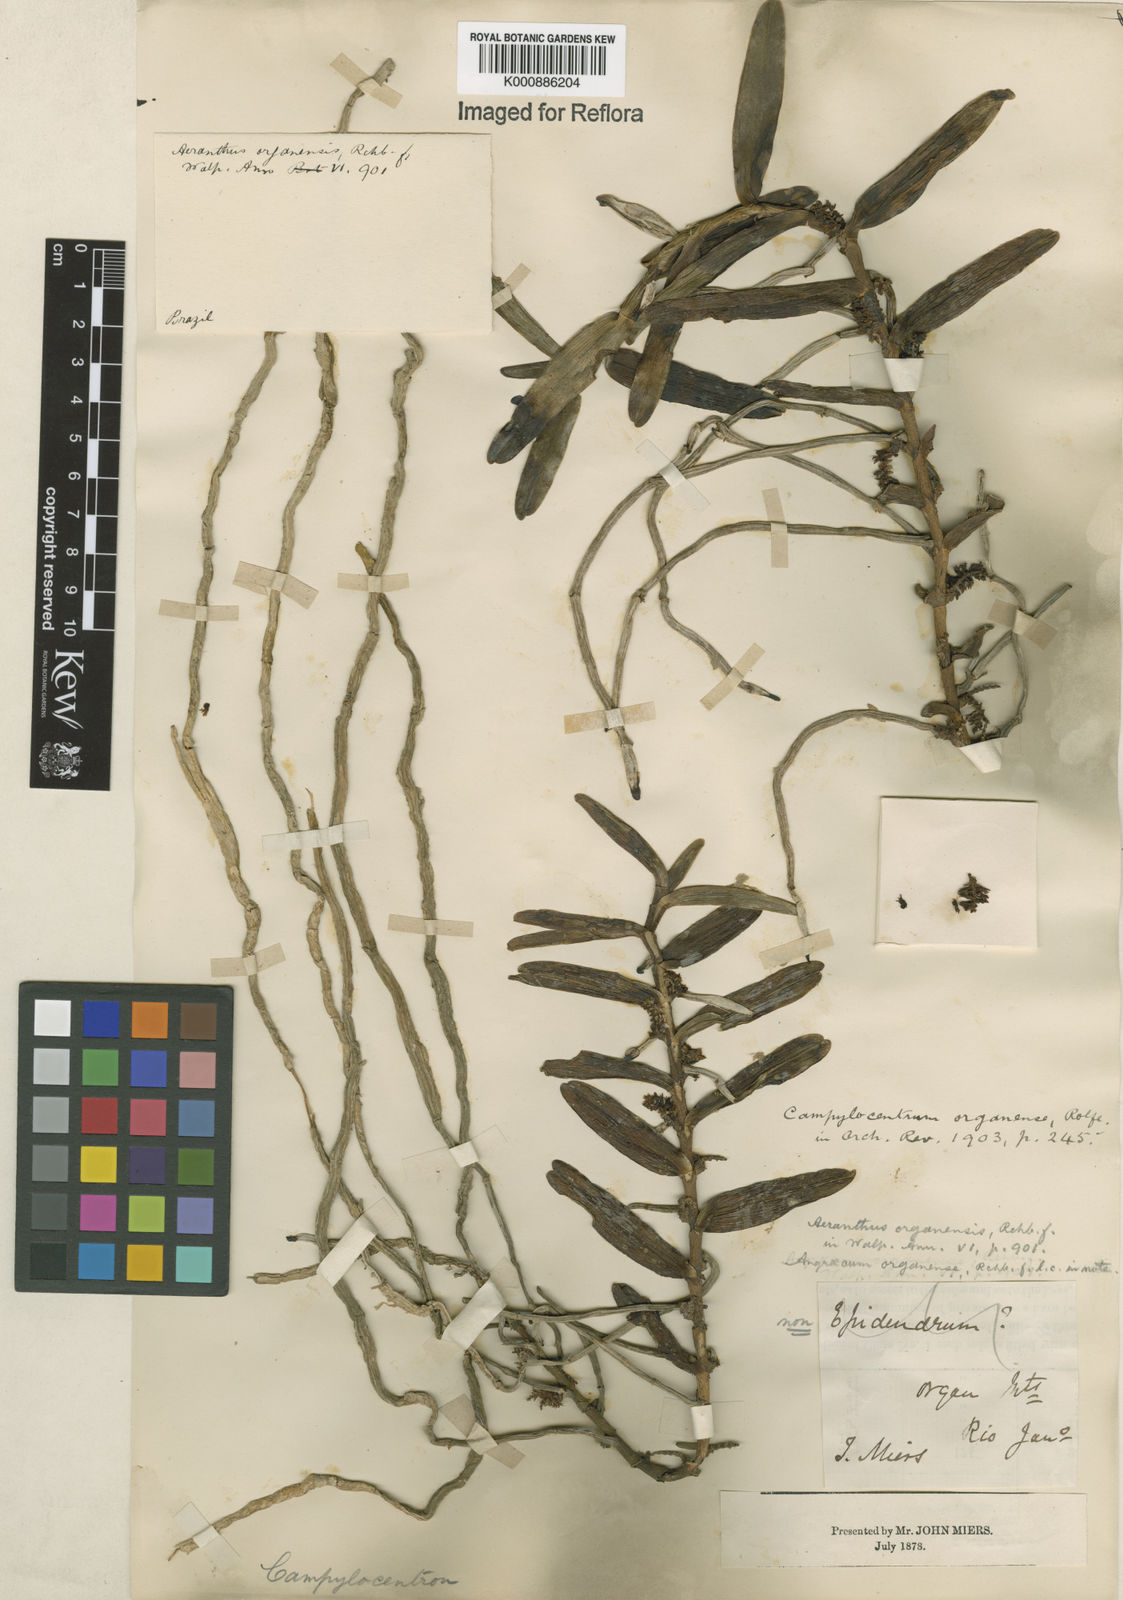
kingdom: Plantae
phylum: Tracheophyta
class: Liliopsida
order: Asparagales
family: Orchidaceae
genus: Campylocentrum
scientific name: Campylocentrum organense
